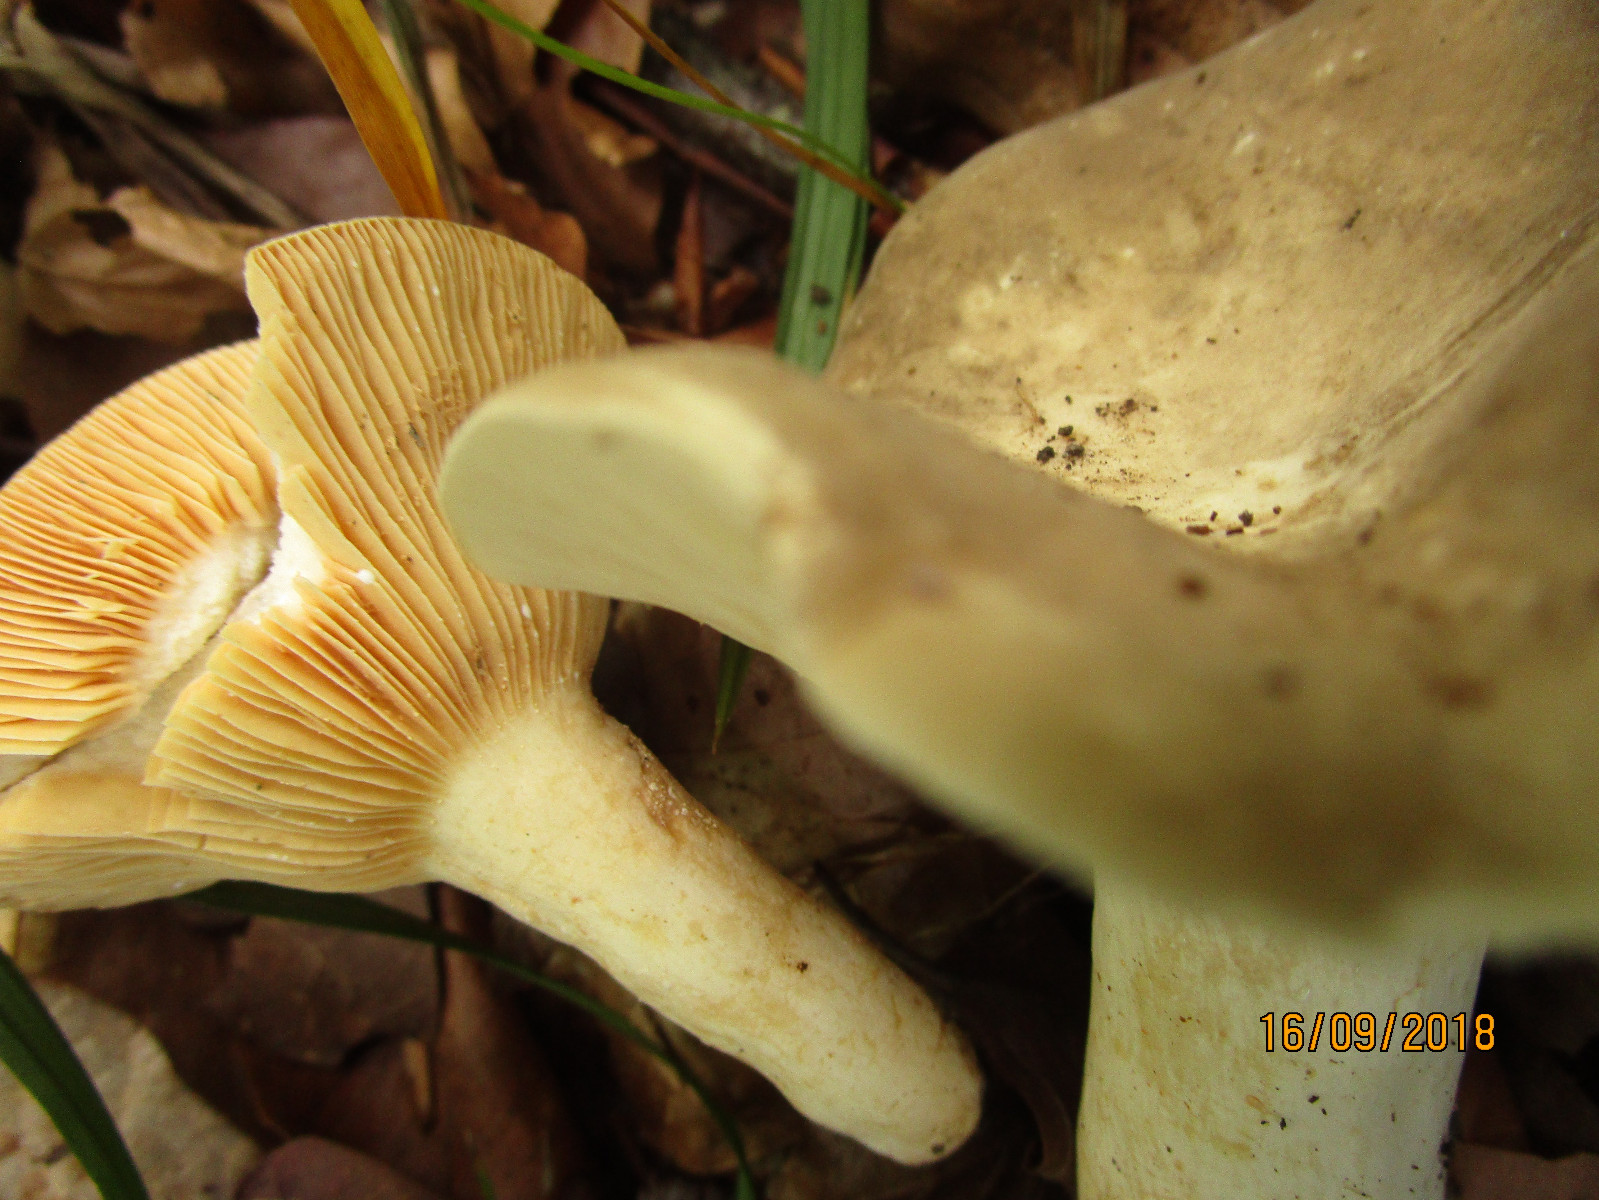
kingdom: Fungi
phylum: Basidiomycota
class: Agaricomycetes
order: Russulales
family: Russulaceae
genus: Lactarius
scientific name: Lactarius azonites
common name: røggrå mælkehat
